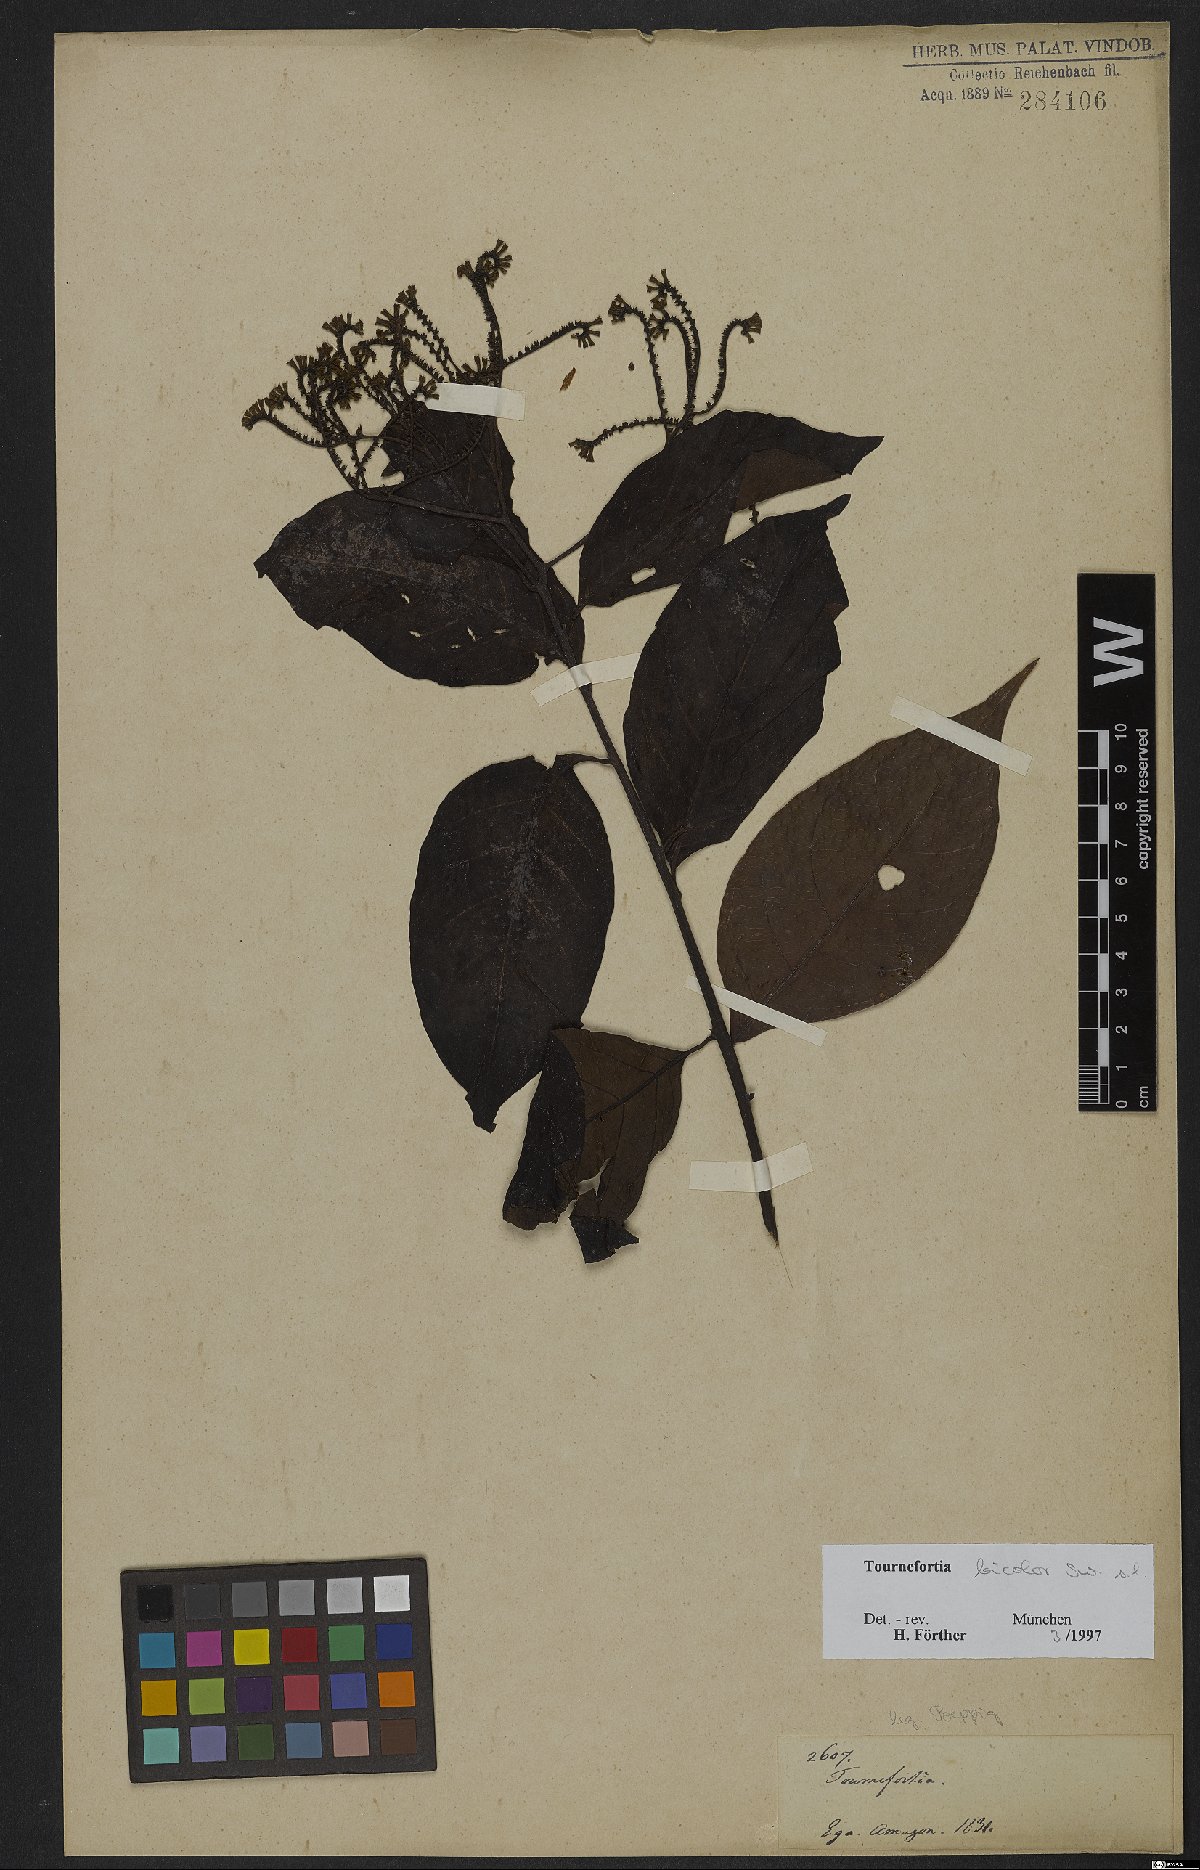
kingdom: Plantae
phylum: Tracheophyta
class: Magnoliopsida
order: Boraginales
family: Heliotropiaceae
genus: Heliotropium
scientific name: Heliotropium verdcourtii
